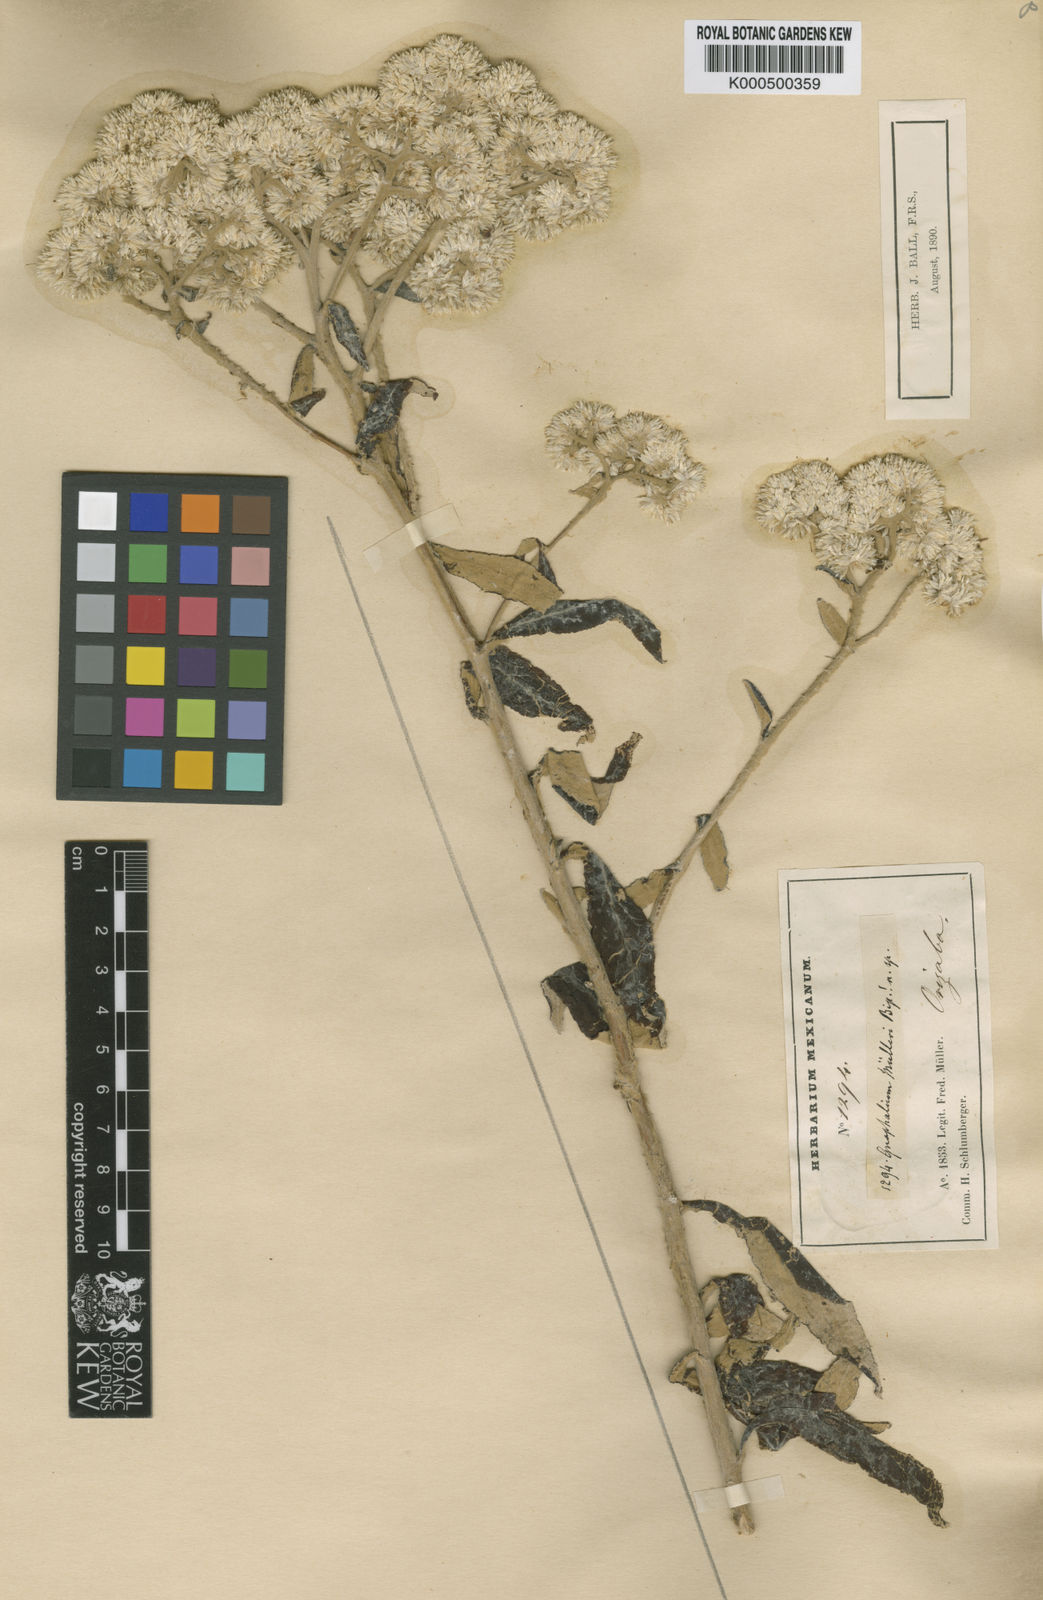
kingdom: Plantae
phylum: Tracheophyta
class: Magnoliopsida
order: Asterales
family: Asteraceae
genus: Gnaphalium
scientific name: Gnaphalium
